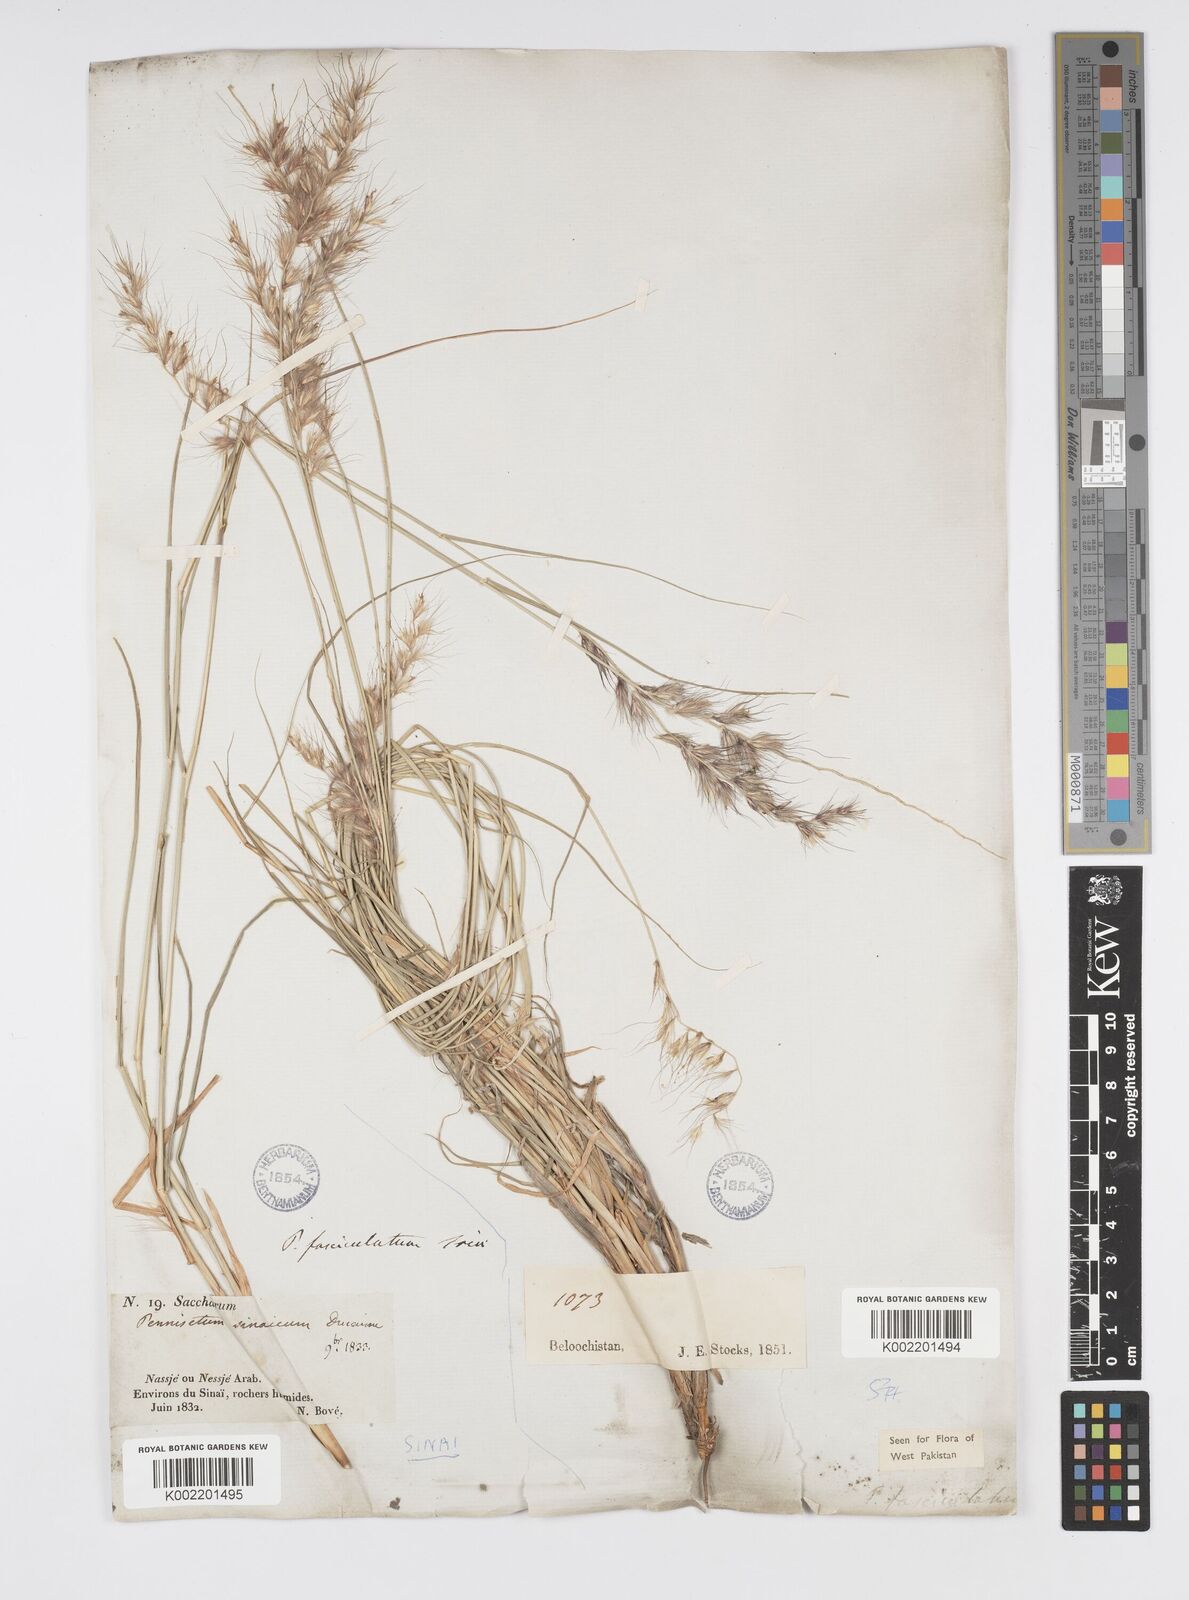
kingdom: Plantae
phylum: Tracheophyta
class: Liliopsida
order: Poales
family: Poaceae
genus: Cenchrus
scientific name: Cenchrus orientalis
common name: Oriental fountain grass
